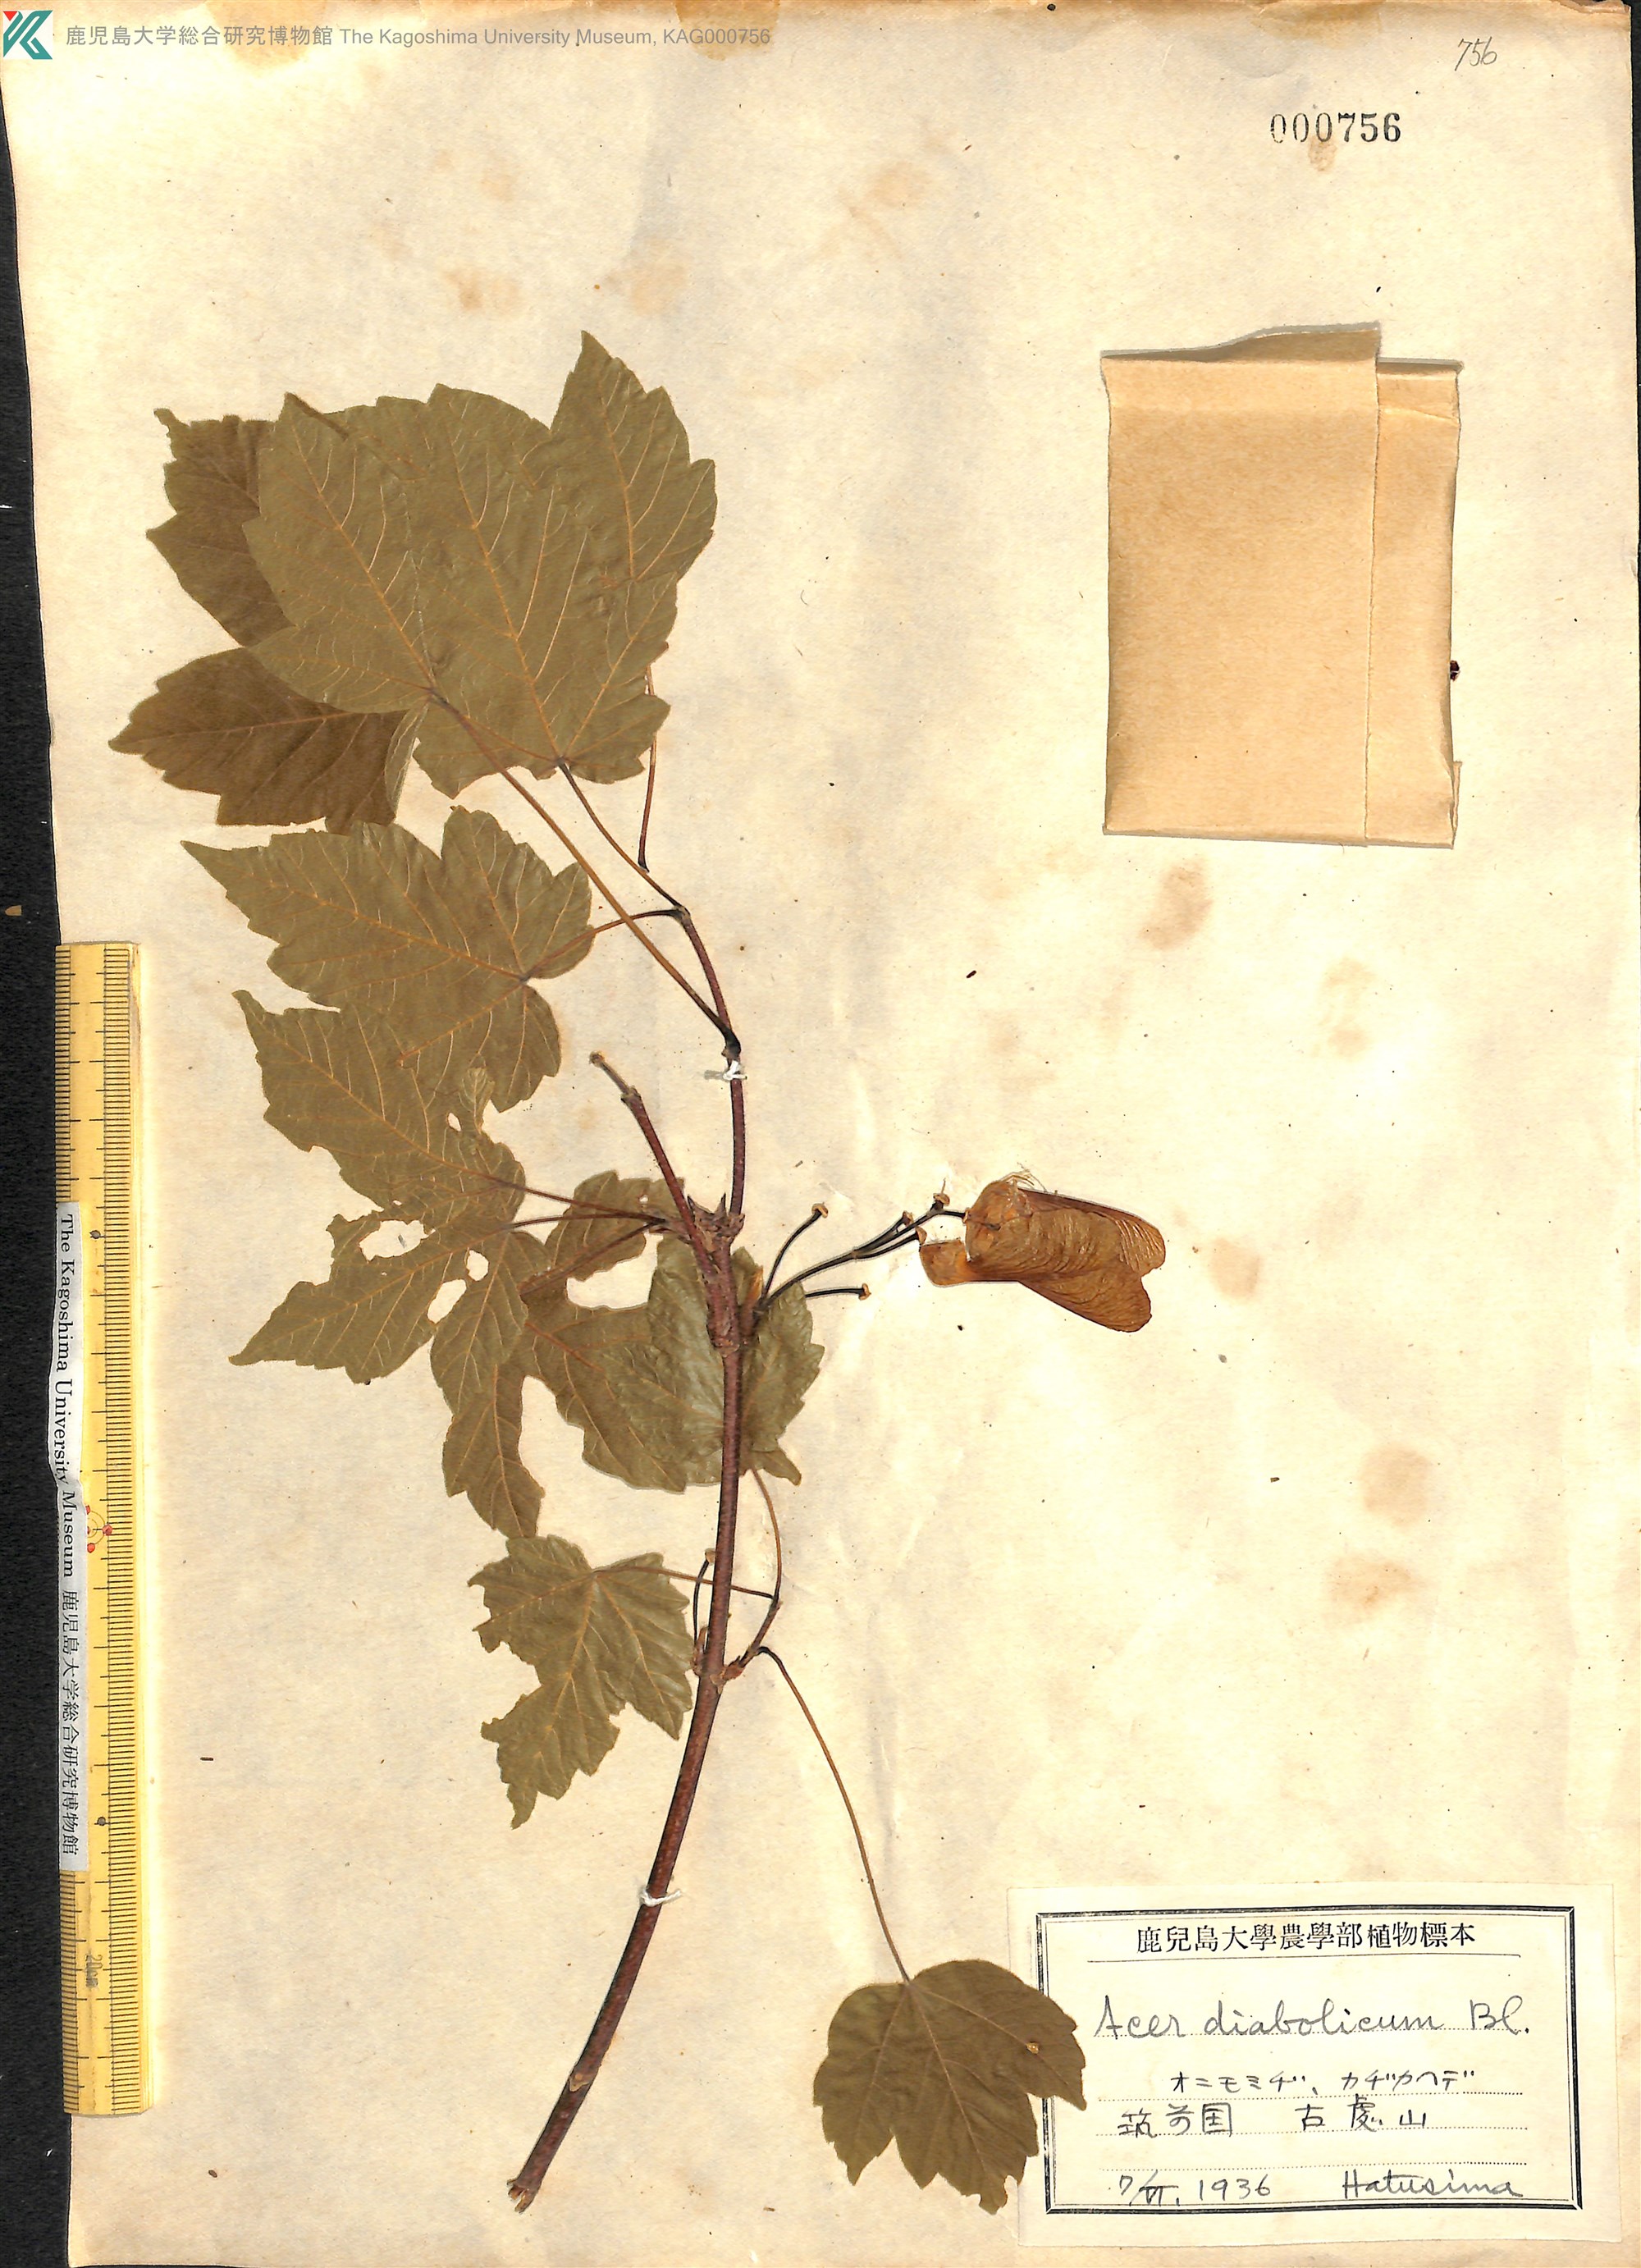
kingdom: Plantae
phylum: Tracheophyta
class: Magnoliopsida
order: Sapindales
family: Sapindaceae
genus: Acer
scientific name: Acer diabolicum
